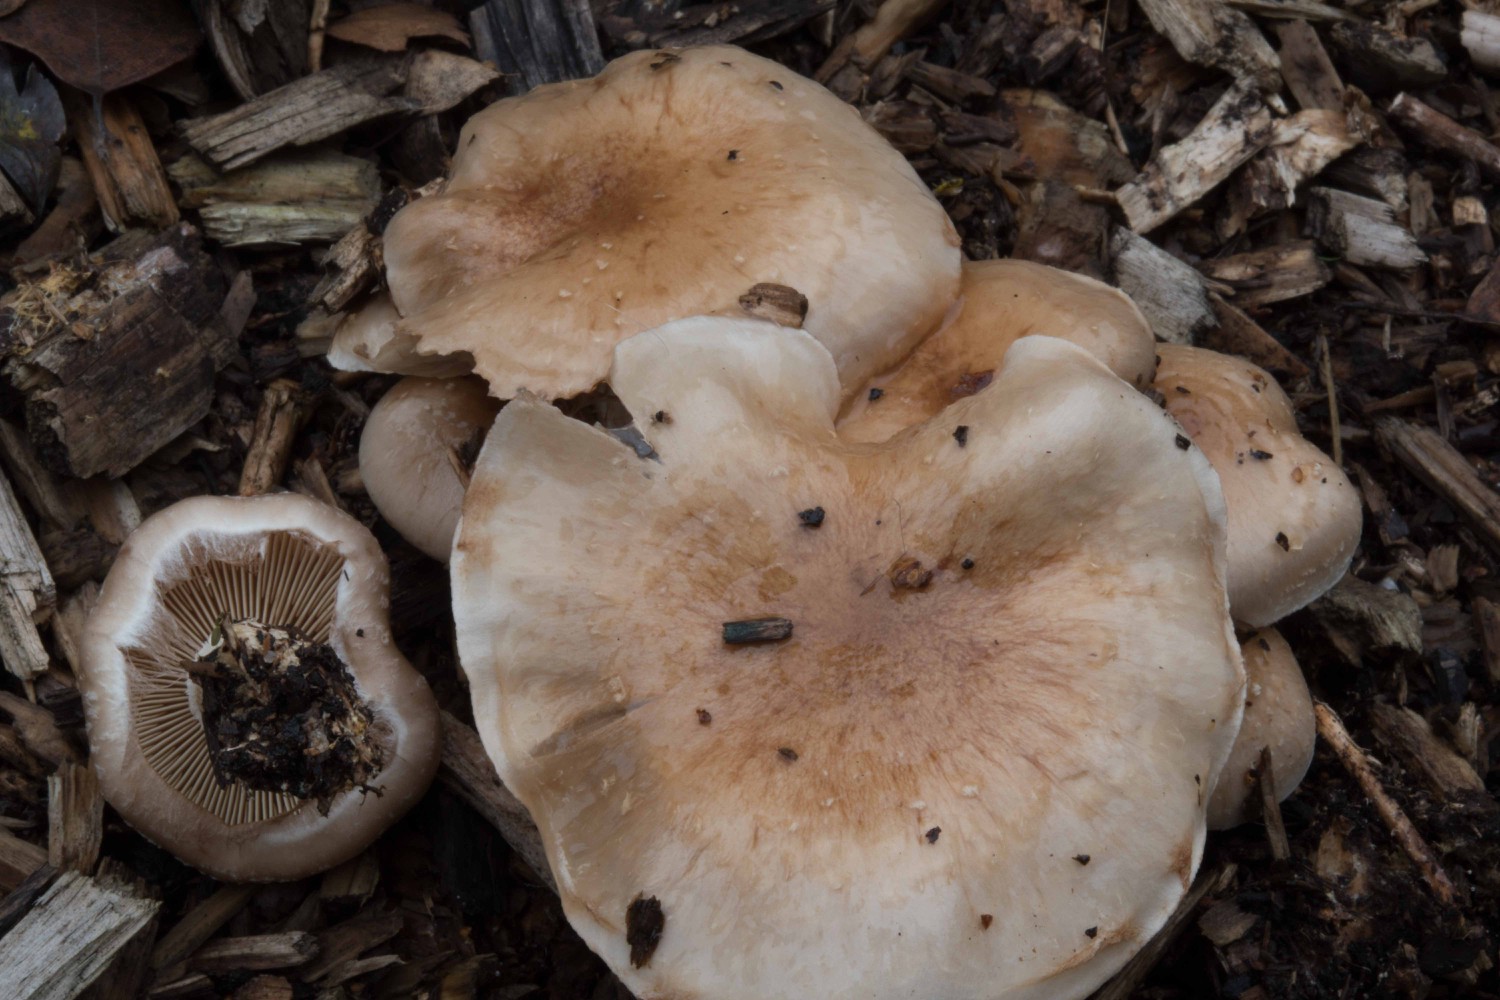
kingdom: Fungi
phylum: Basidiomycota
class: Agaricomycetes
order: Agaricales
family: Strophariaceae
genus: Pholiota
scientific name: Pholiota lenta
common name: løv-skælhat
